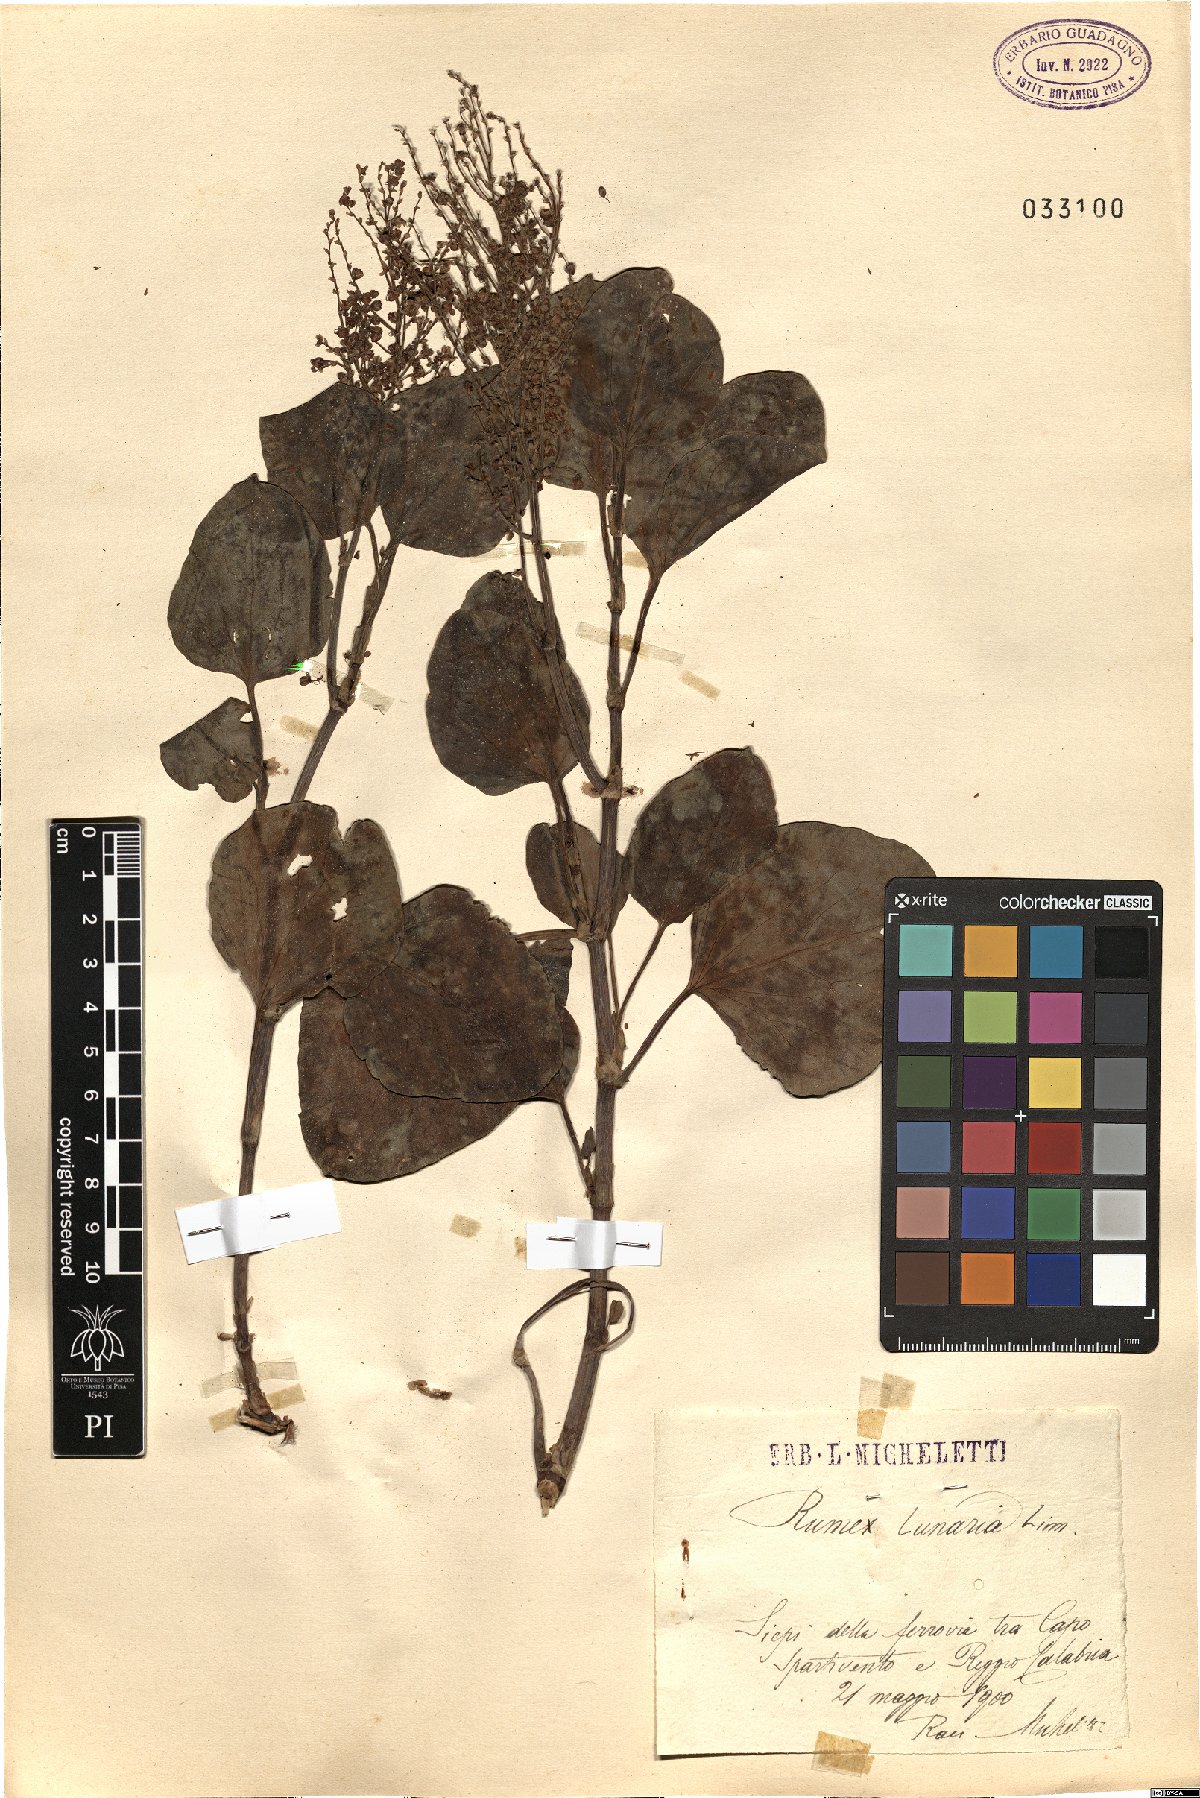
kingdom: Plantae
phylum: Tracheophyta
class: Magnoliopsida
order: Caryophyllales
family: Polygonaceae
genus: Rumex
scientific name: Rumex lunaria
